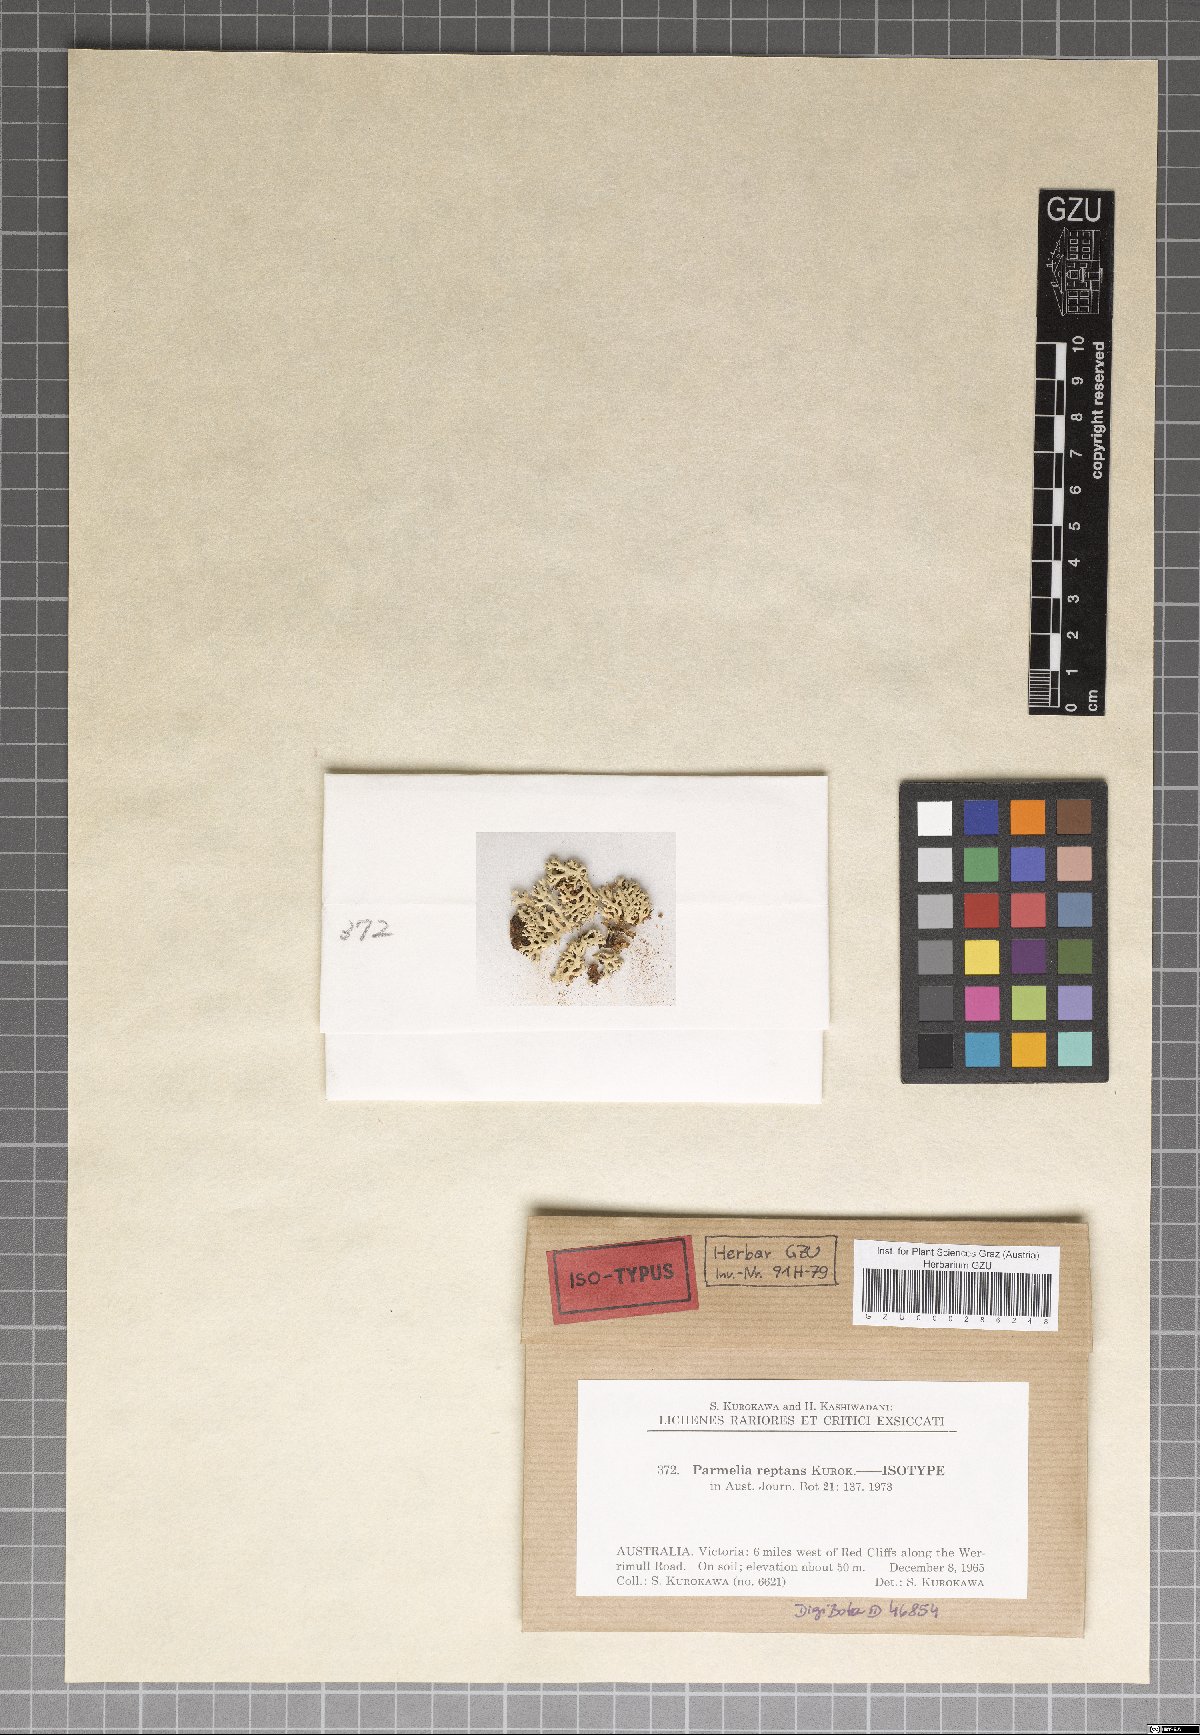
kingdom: Fungi
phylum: Ascomycota
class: Lecanoromycetes
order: Lecanorales
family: Parmeliaceae
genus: Parmelinella
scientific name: Parmelinella
